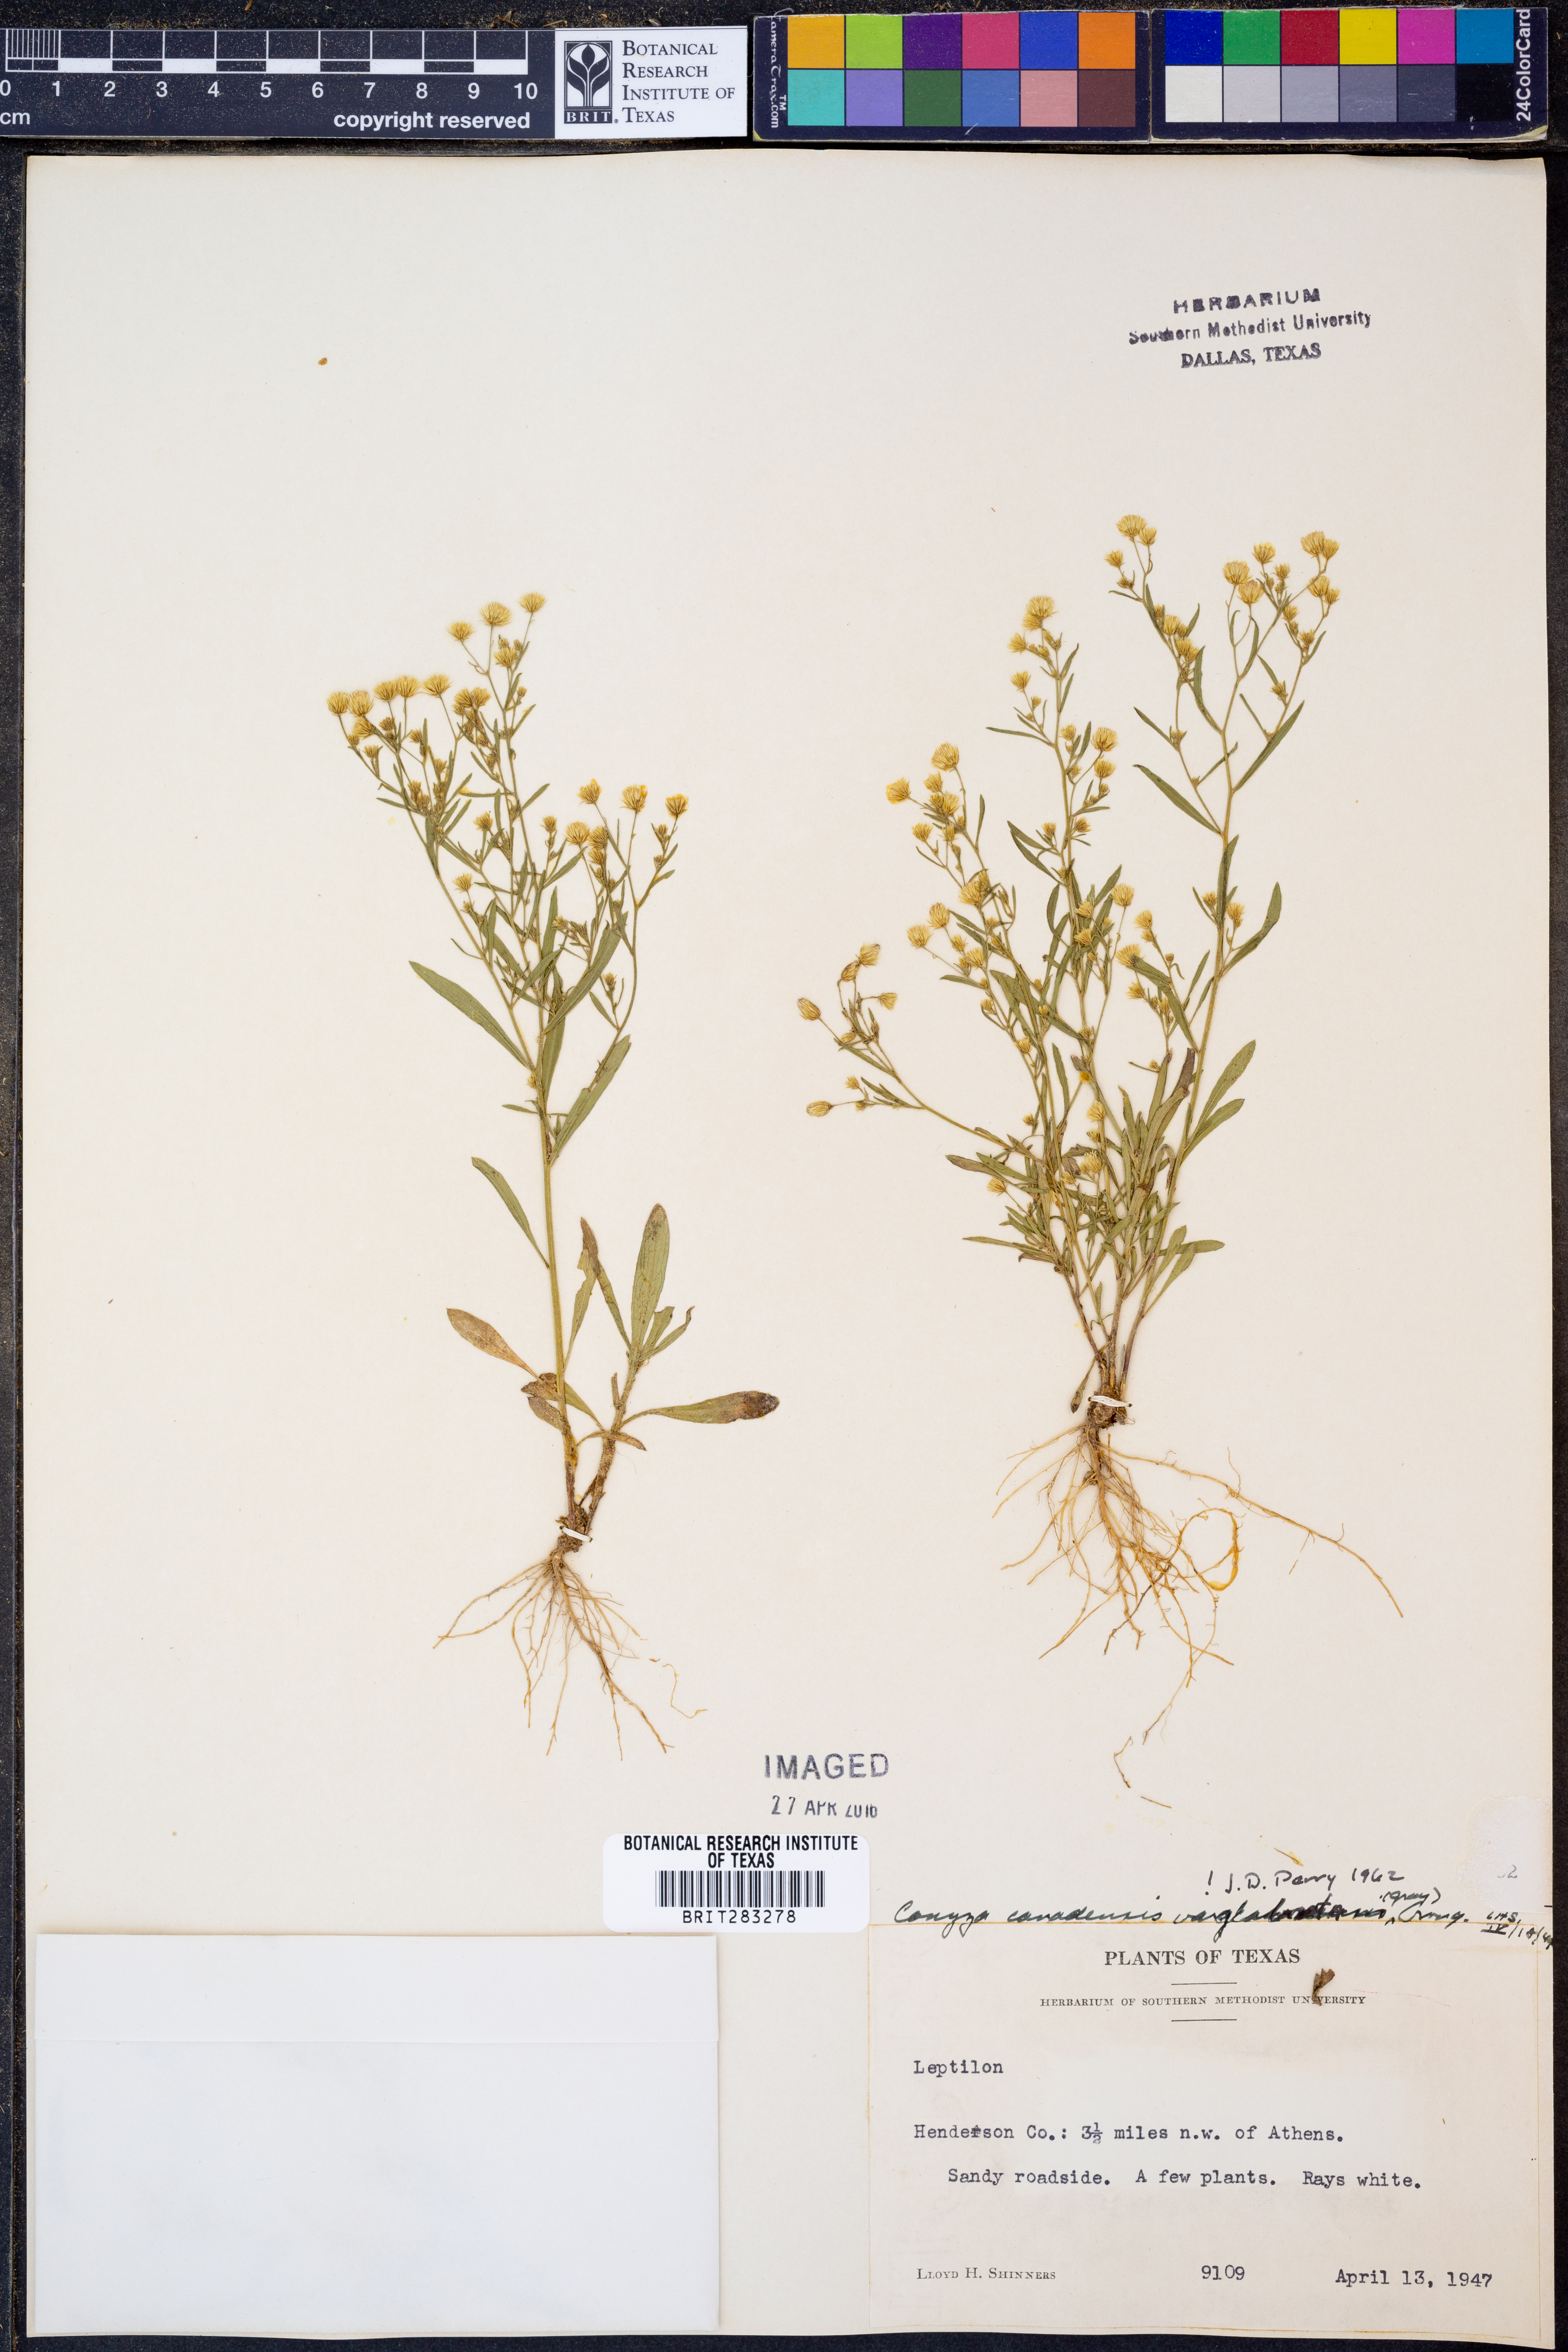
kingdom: Plantae
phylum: Tracheophyta
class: Magnoliopsida
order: Asterales
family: Asteraceae
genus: Erigeron
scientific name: Erigeron canadensis
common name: Canadian fleabane
